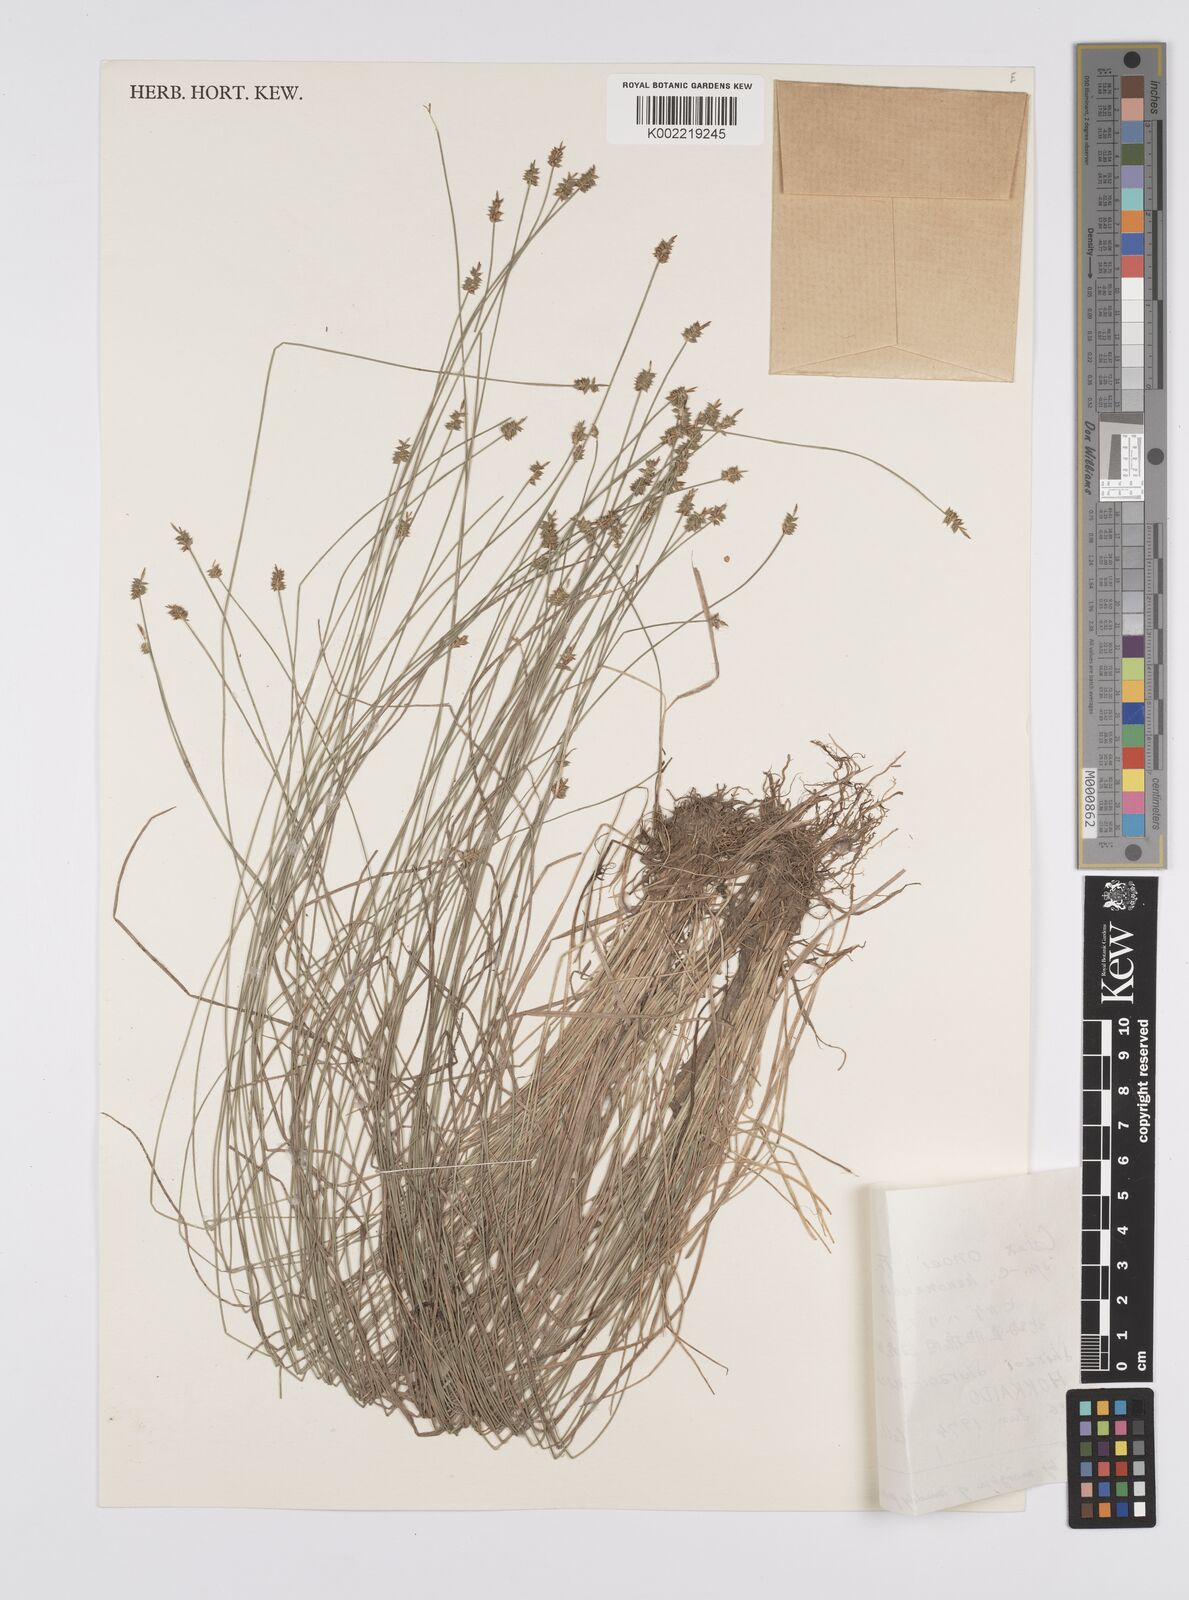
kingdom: Plantae
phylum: Tracheophyta
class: Liliopsida
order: Poales
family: Cyperaceae
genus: Carex
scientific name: Carex onoei
